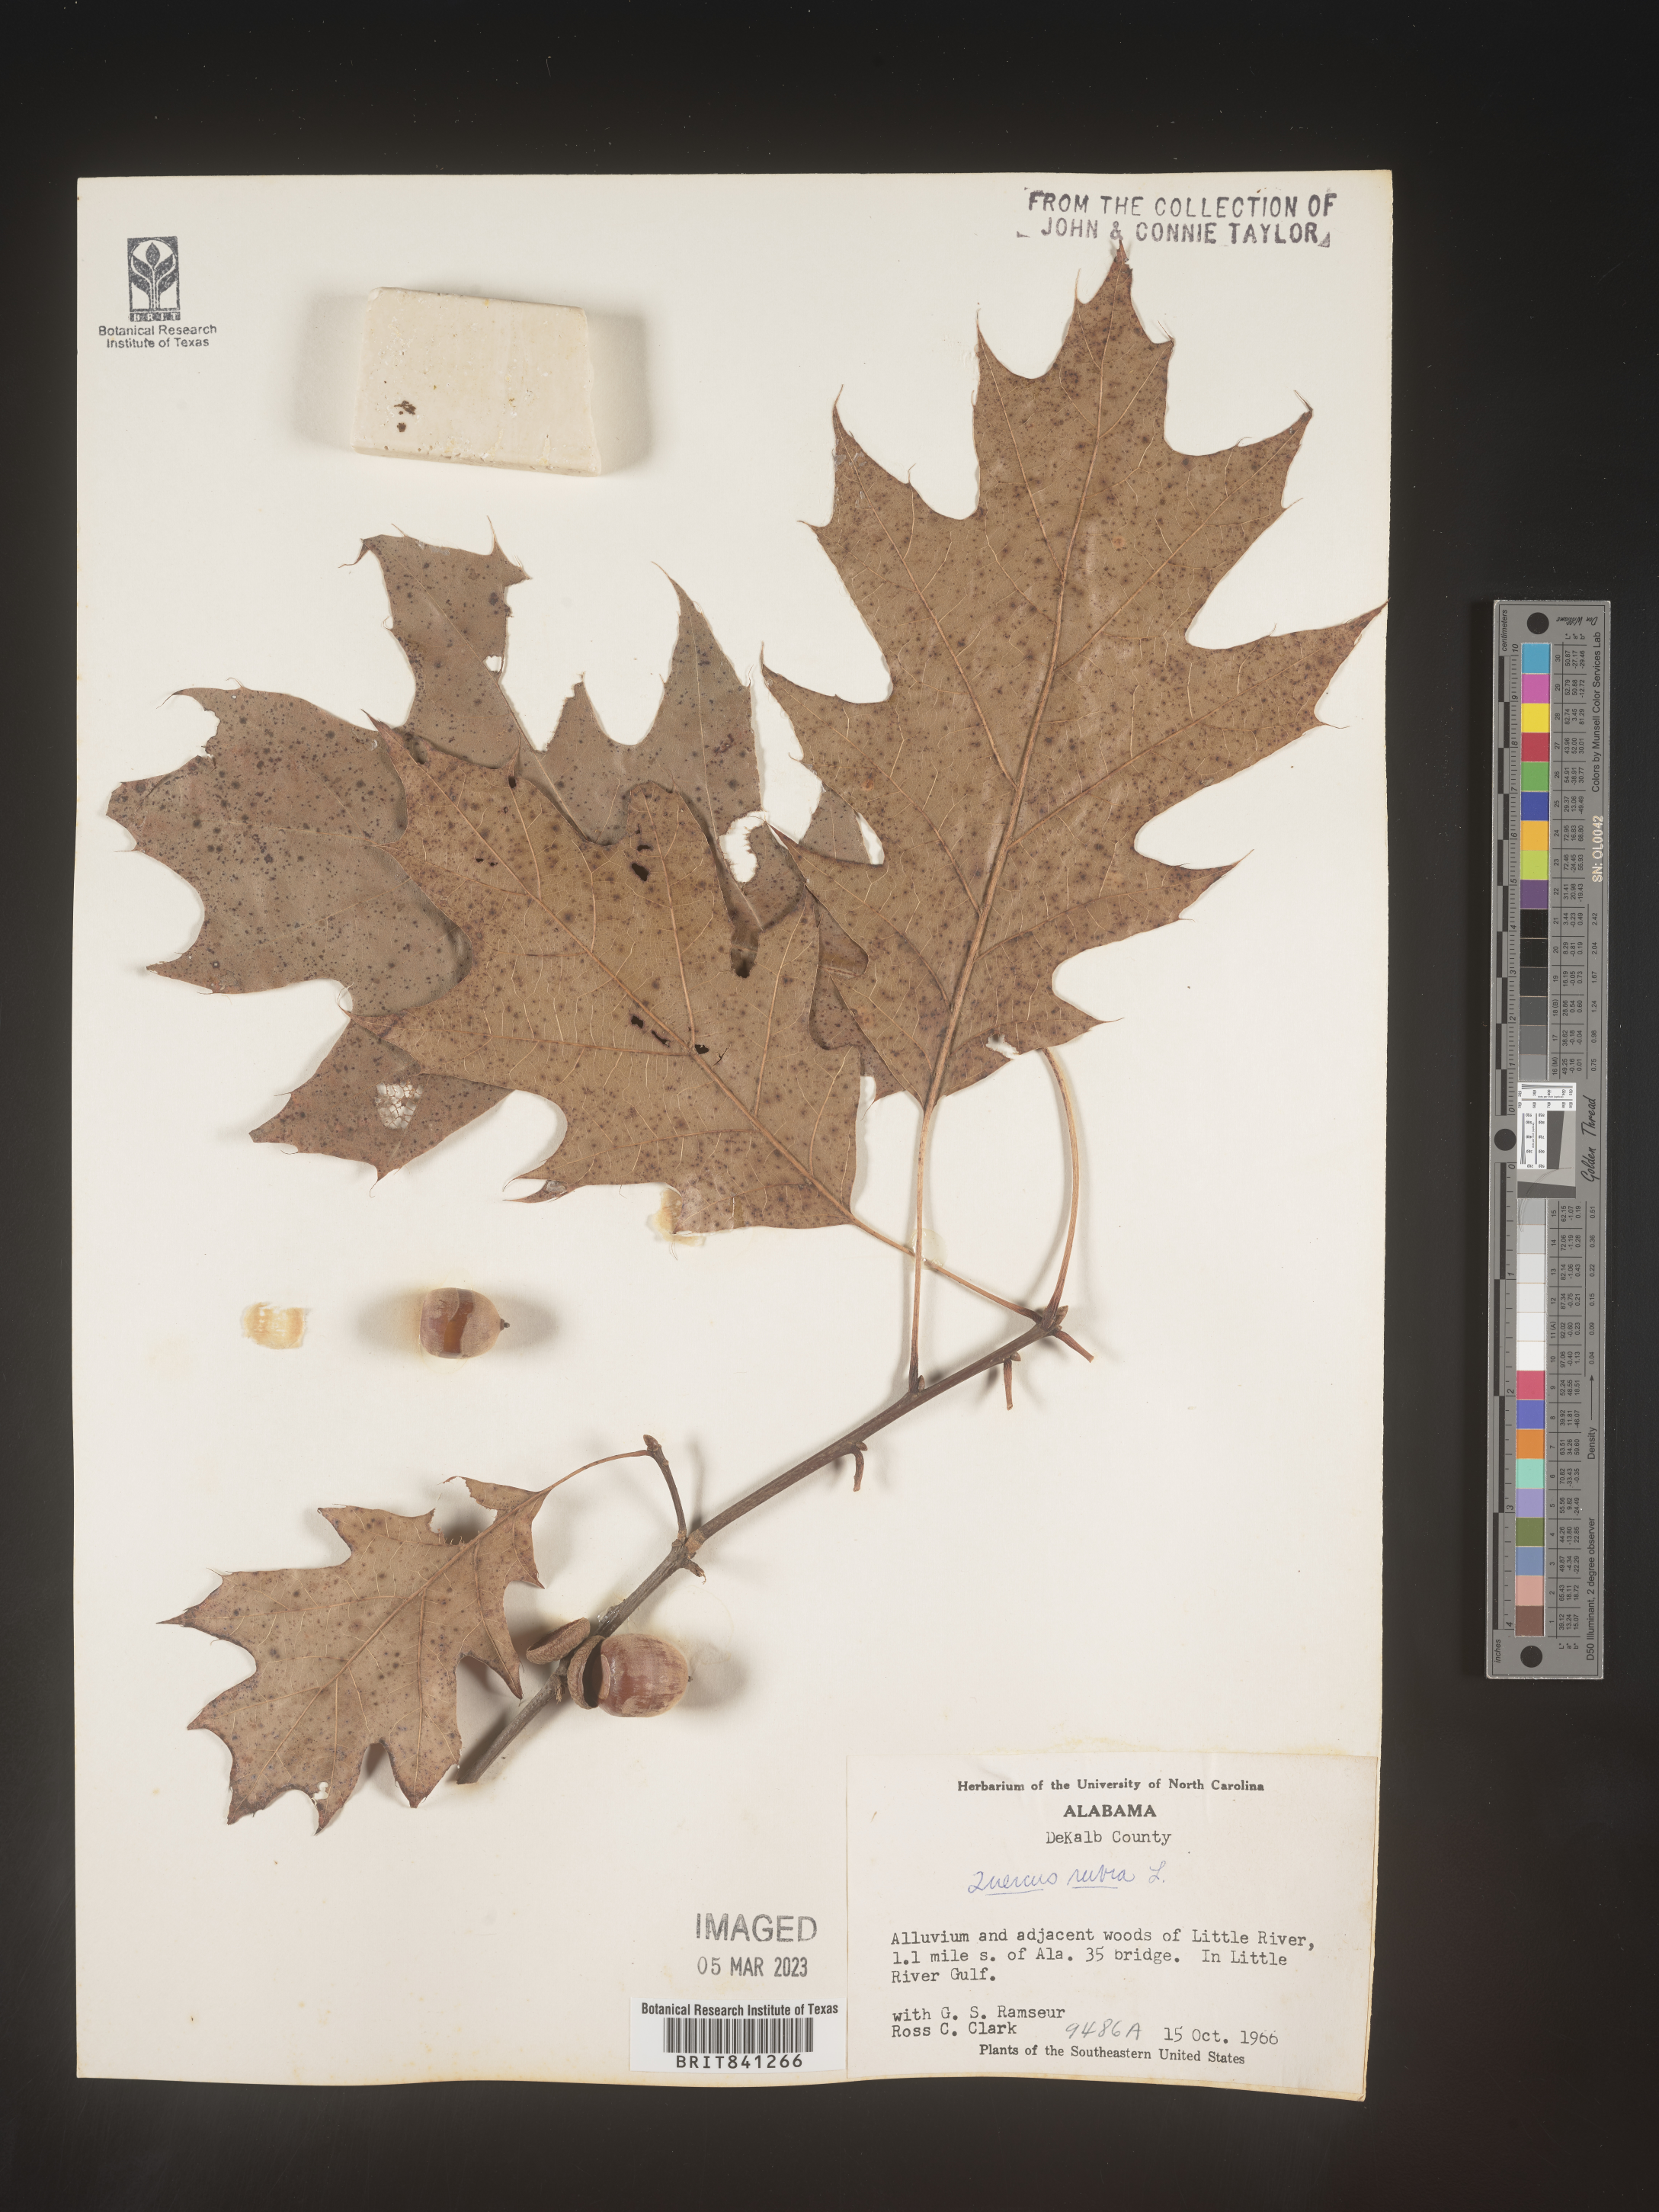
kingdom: Plantae
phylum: Tracheophyta
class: Magnoliopsida
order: Fagales
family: Fagaceae
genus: Quercus
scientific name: Quercus rubra
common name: Red oak
